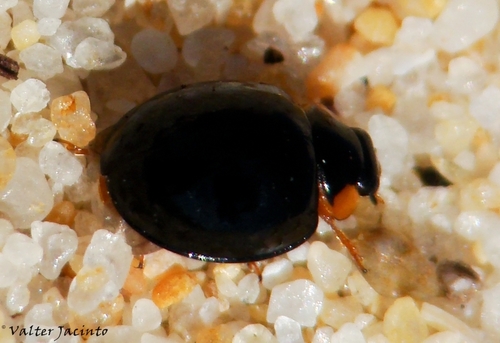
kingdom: Animalia
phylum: Arthropoda
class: Insecta
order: Coleoptera
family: Coccinellidae
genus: Parexochomus
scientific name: Parexochomus nigromaculatus
